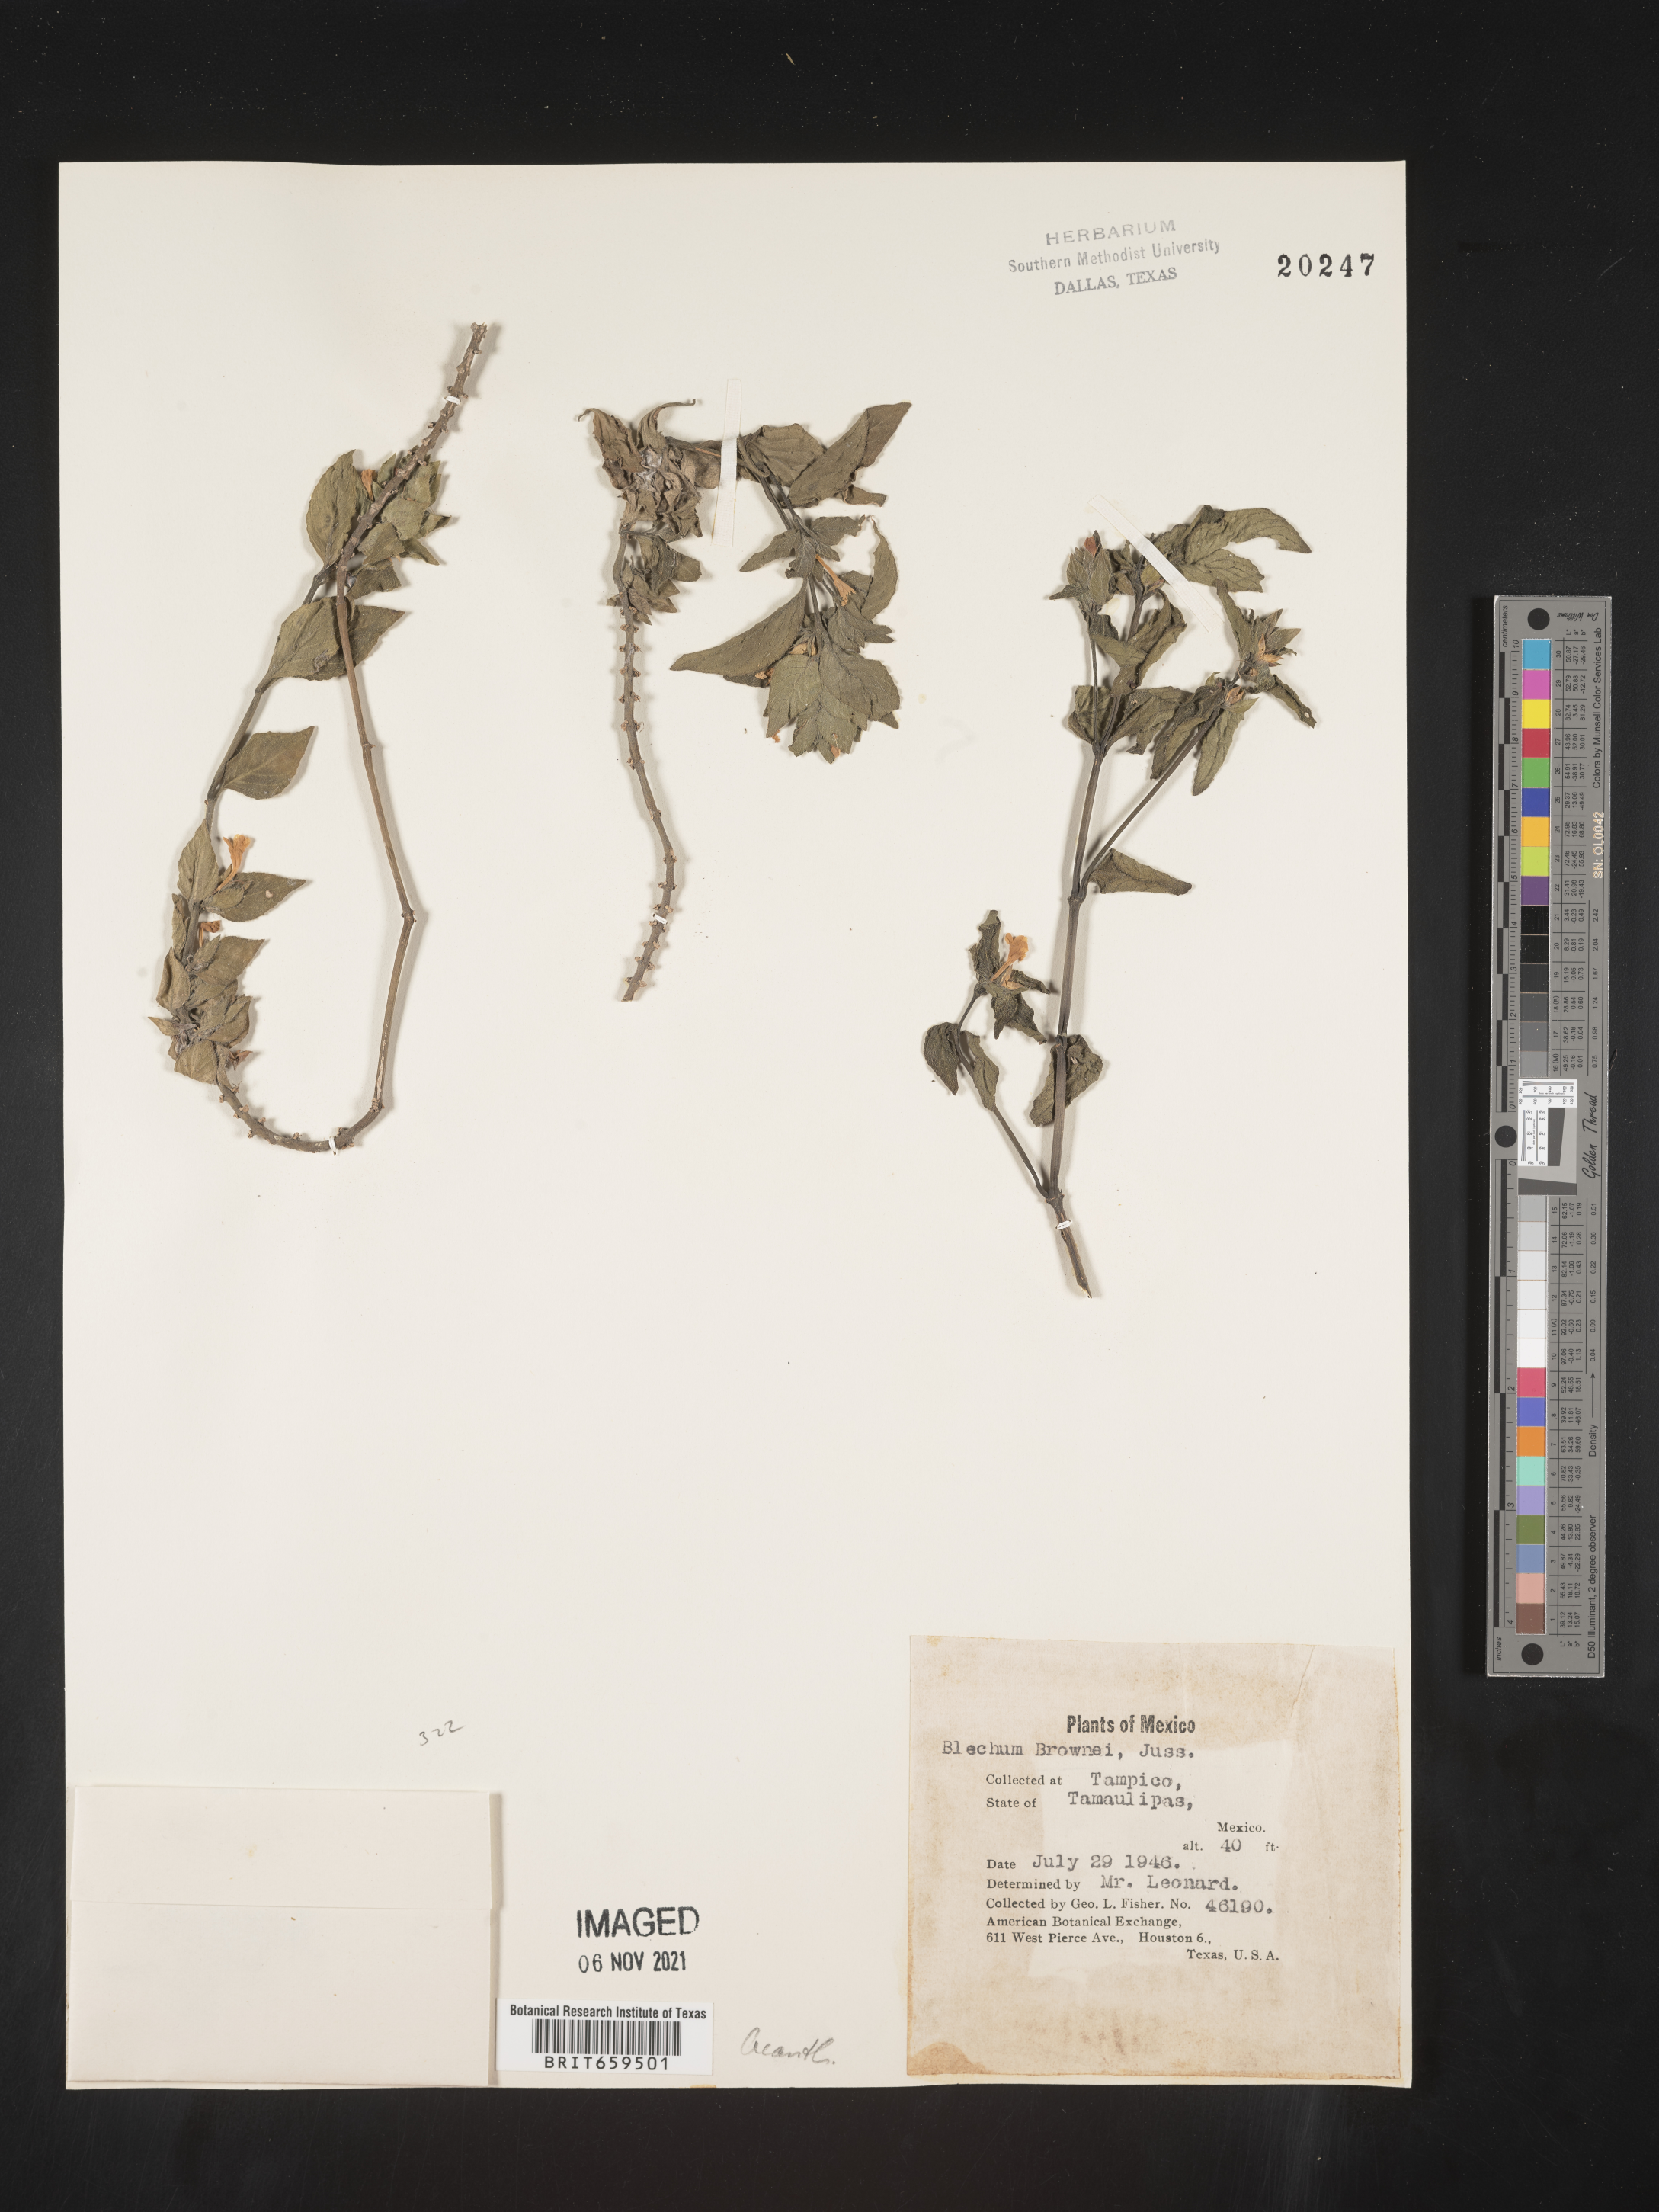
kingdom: Plantae
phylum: Tracheophyta
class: Polypodiopsida
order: Polypodiales
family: Blechnaceae
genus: Blechum
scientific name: Blechum
